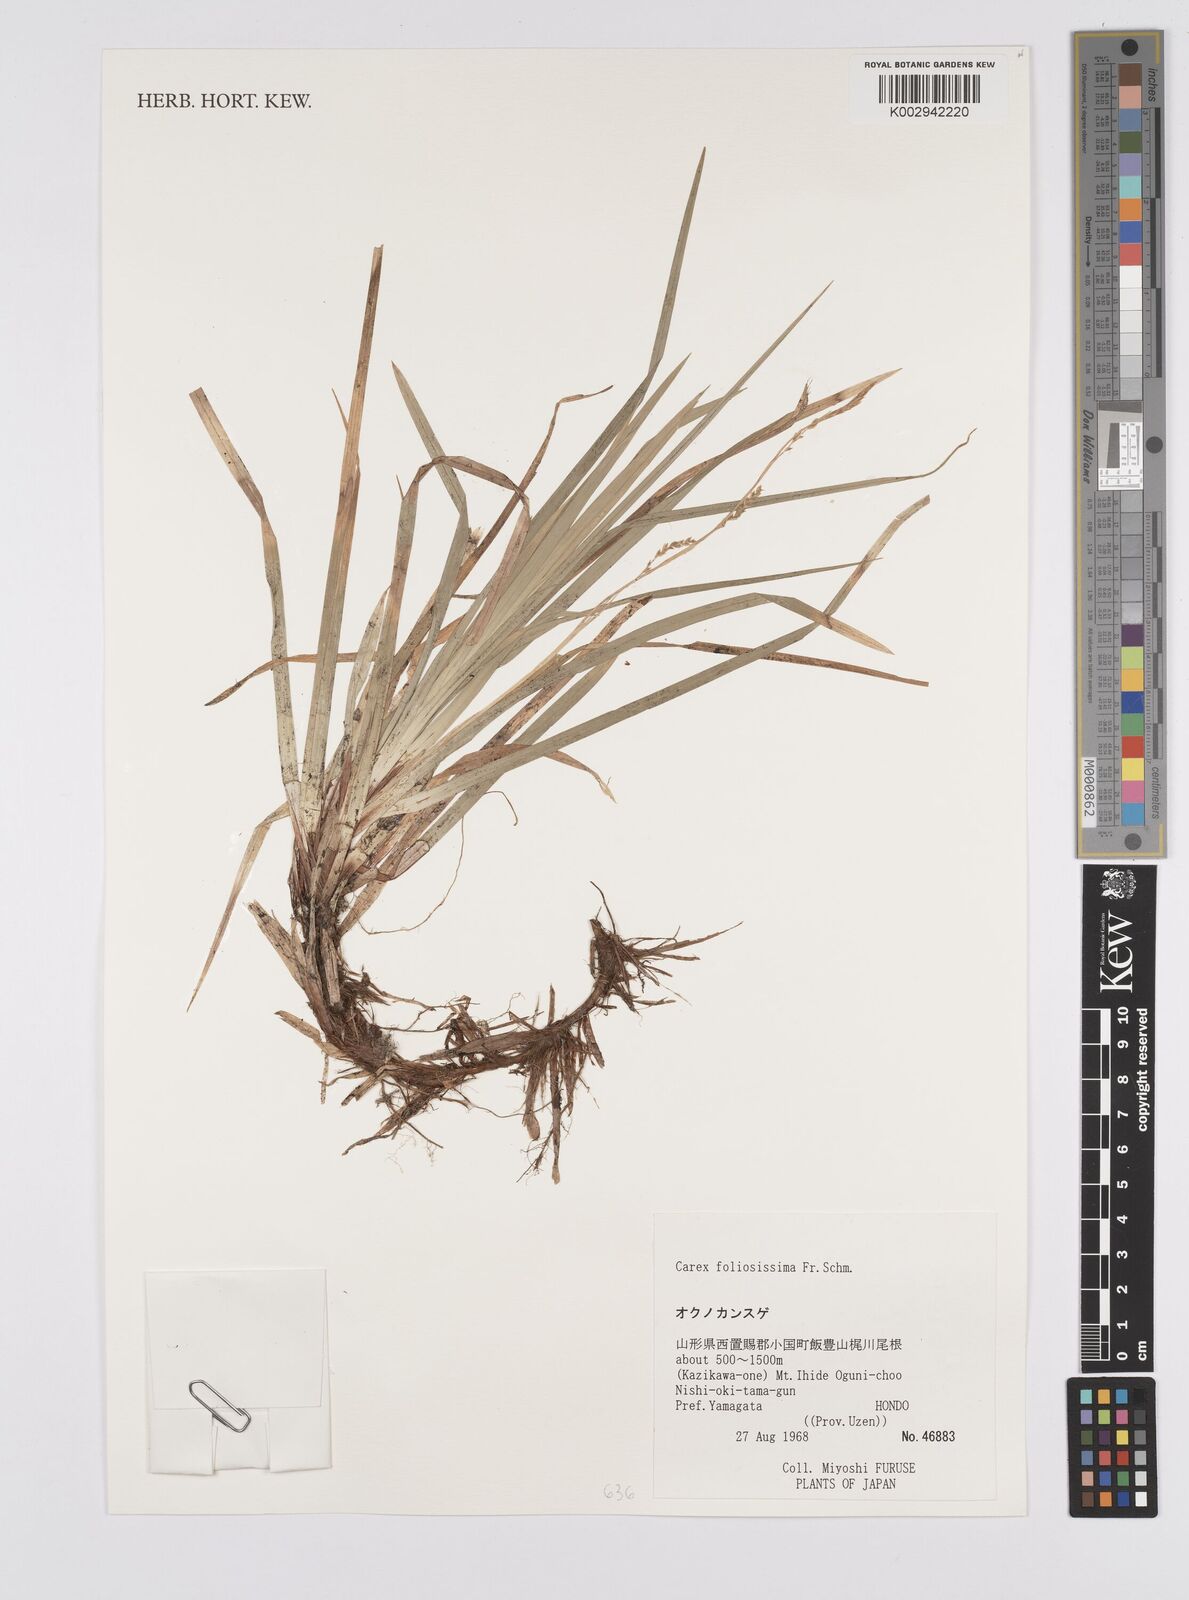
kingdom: Plantae
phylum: Tracheophyta
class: Liliopsida
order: Poales
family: Cyperaceae
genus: Carex
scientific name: Carex morrowii
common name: Japanese sedge
